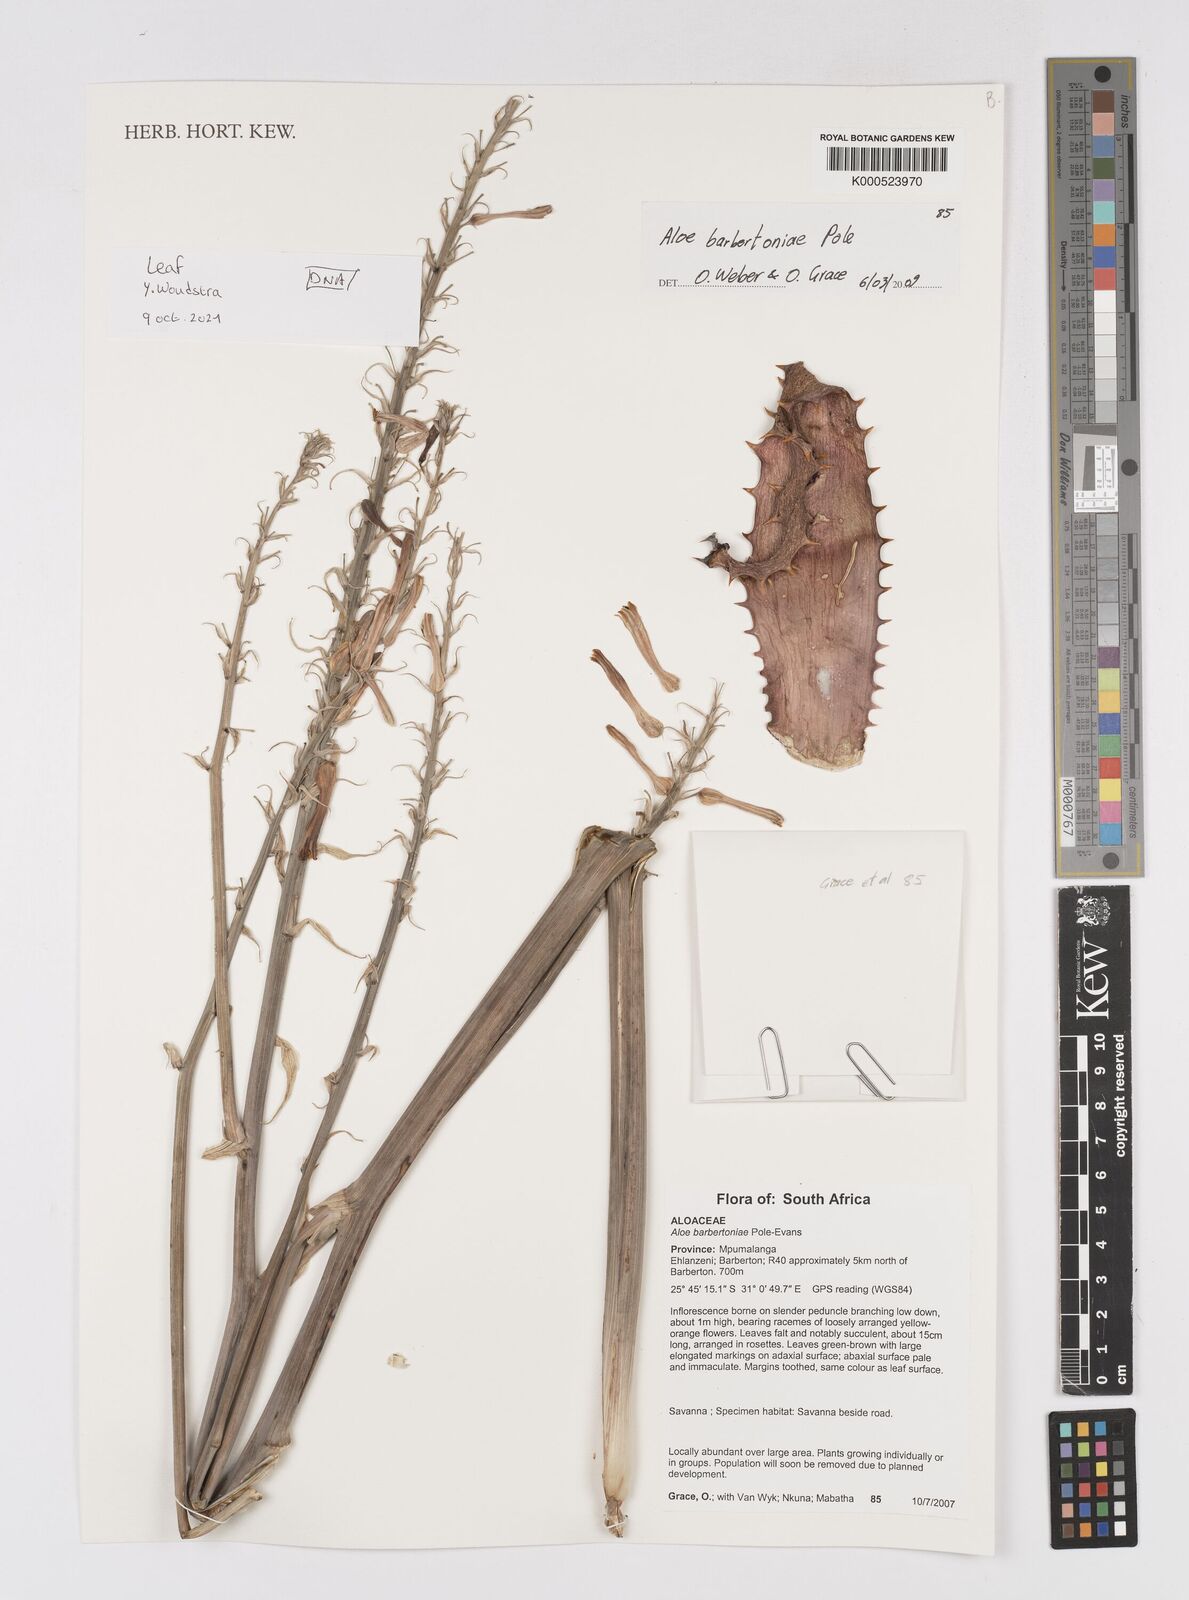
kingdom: Plantae
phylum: Tracheophyta
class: Liliopsida
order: Asparagales
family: Asphodelaceae
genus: Aloe
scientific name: Aloe davyana
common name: Spotted aloe
